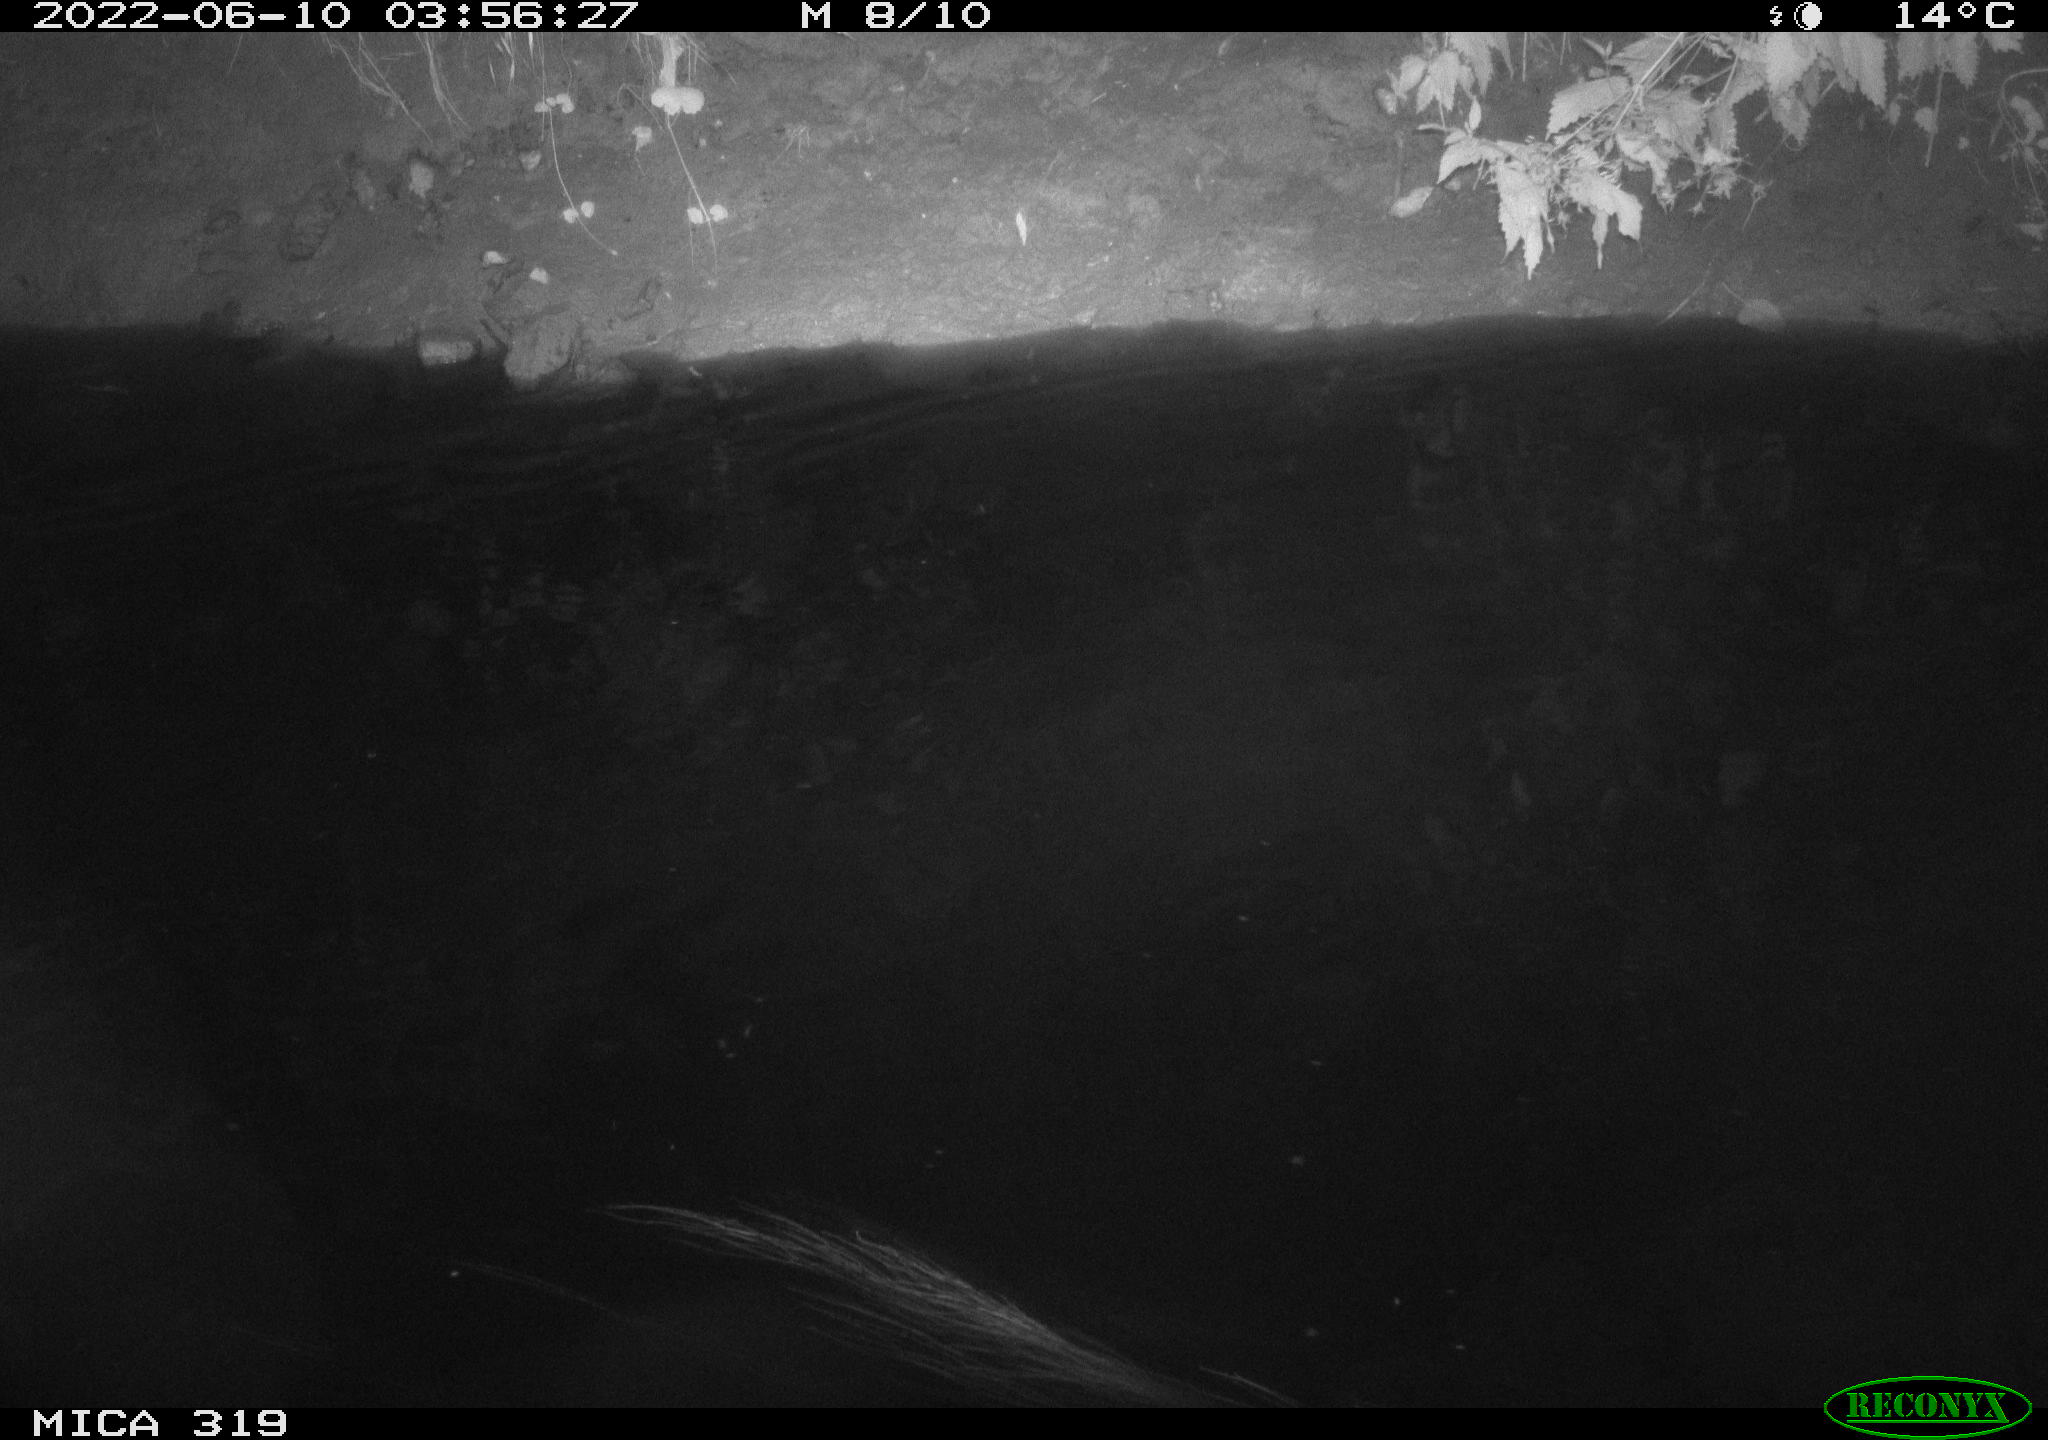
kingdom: Animalia
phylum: Chordata
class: Aves
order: Anseriformes
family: Anatidae
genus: Anas
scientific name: Anas
